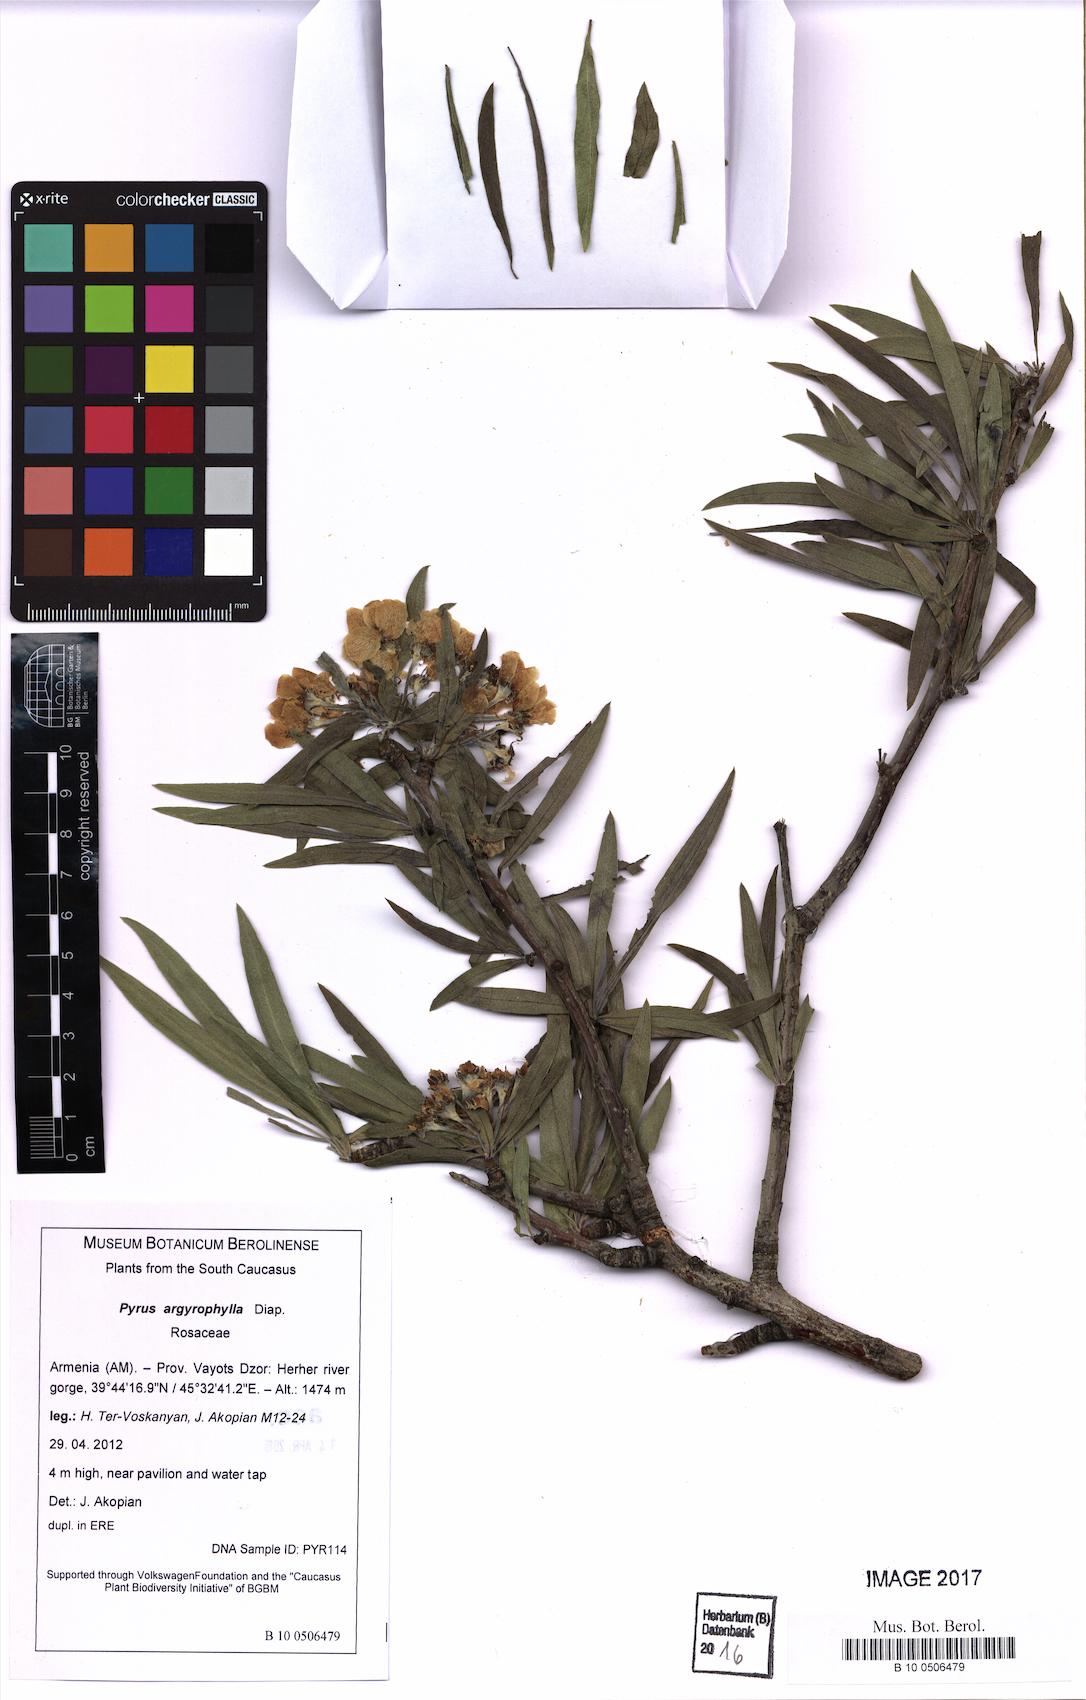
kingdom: Plantae
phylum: Tracheophyta
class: Magnoliopsida
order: Rosales
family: Rosaceae
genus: Pyrus
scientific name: Pyrus salicifolia
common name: Willow-leaved pear
